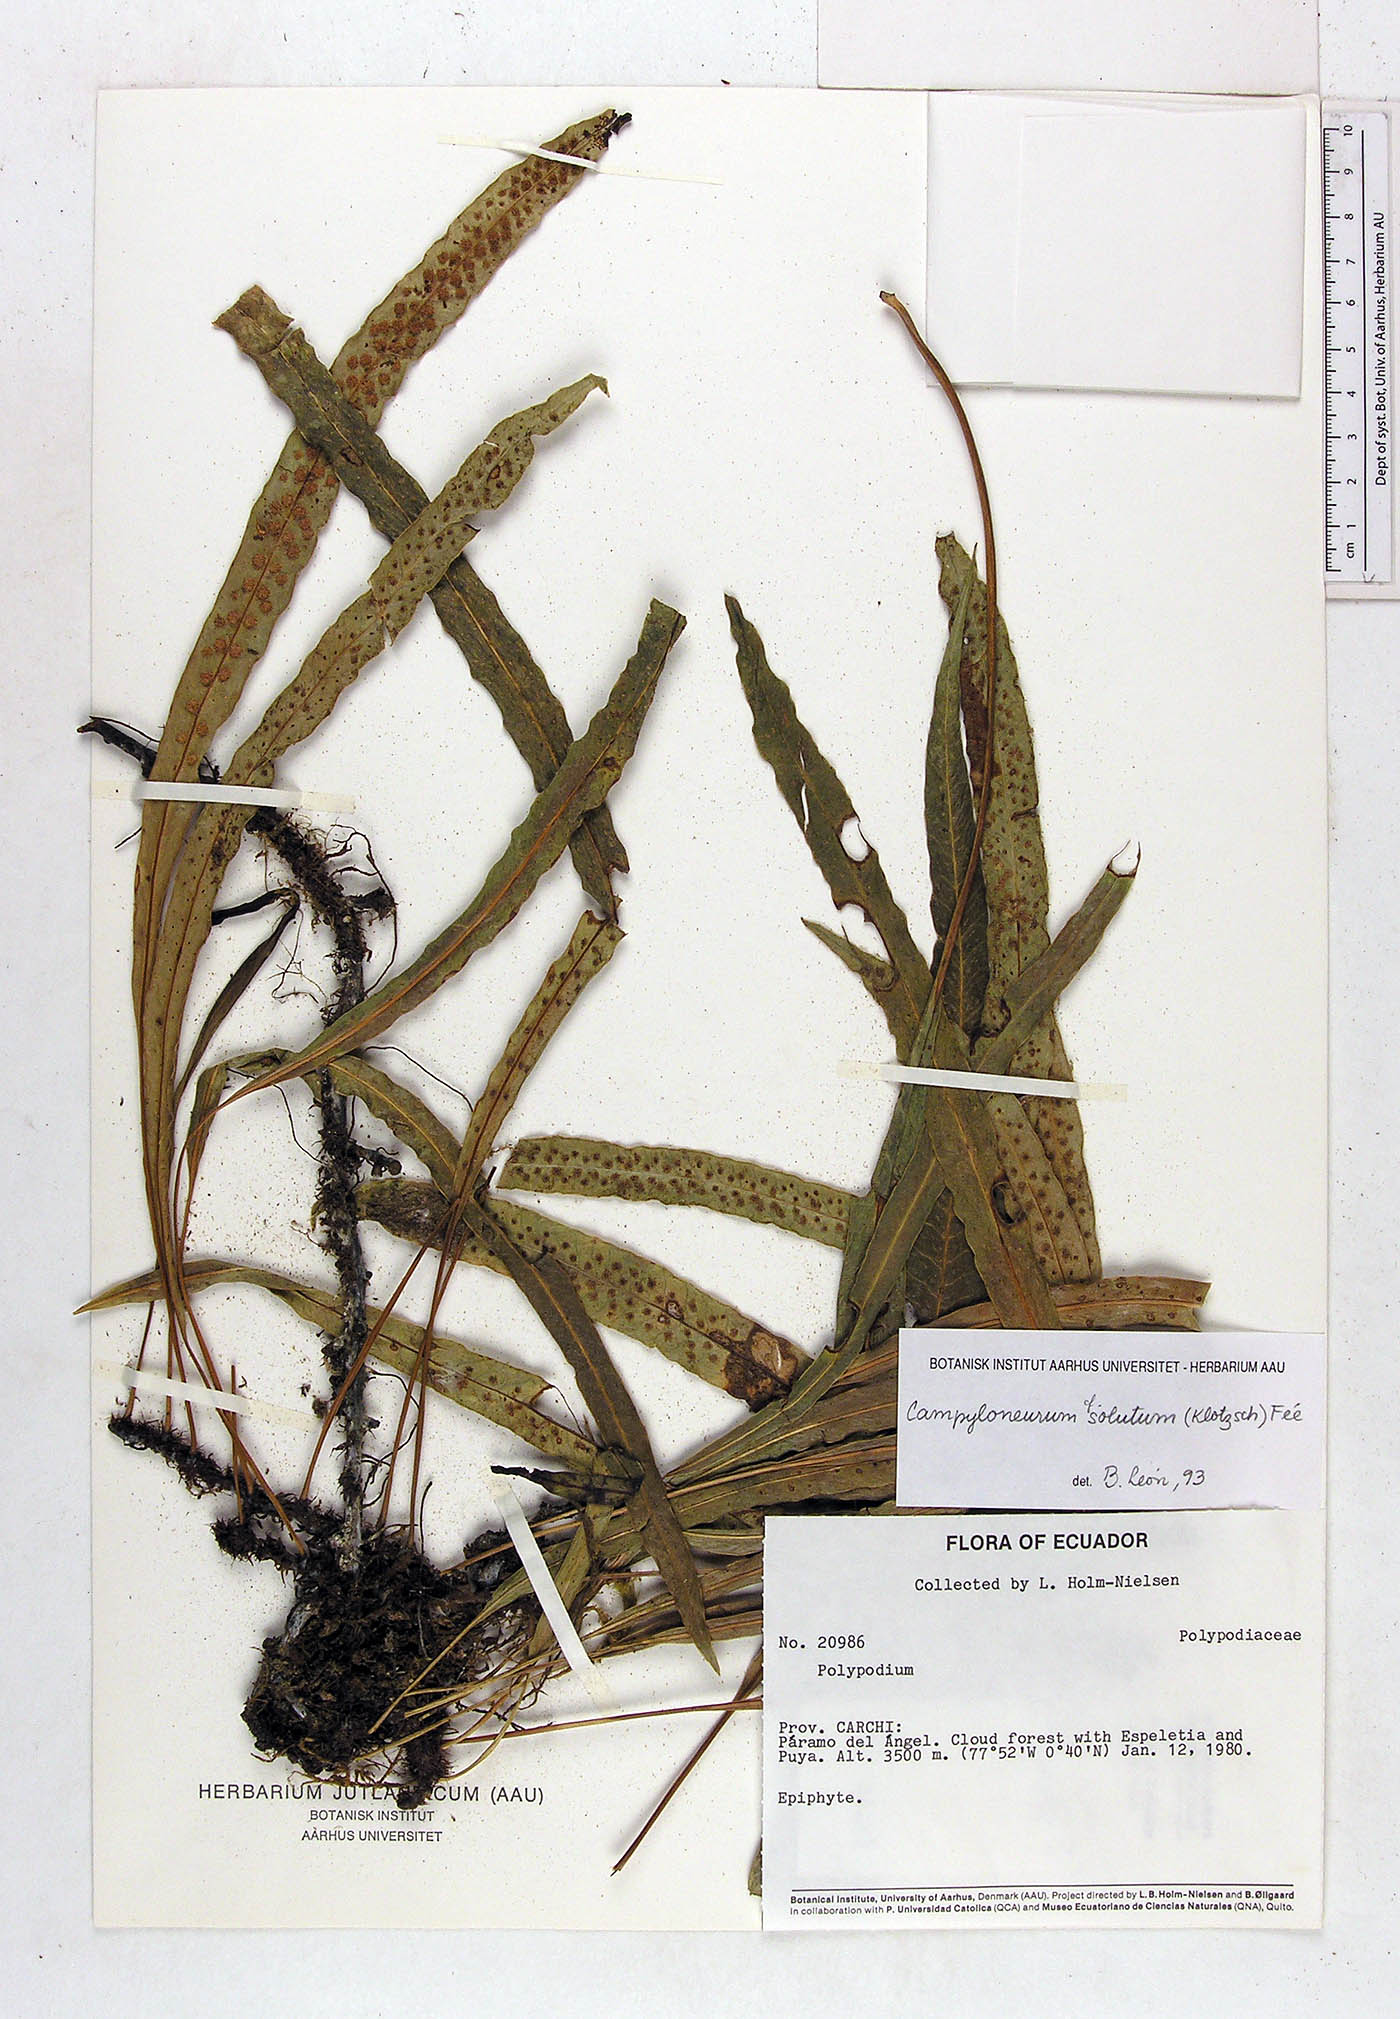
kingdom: Plantae
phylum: Tracheophyta
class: Polypodiopsida
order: Polypodiales
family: Polypodiaceae
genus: Campyloneurum
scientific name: Campyloneurum solutum
